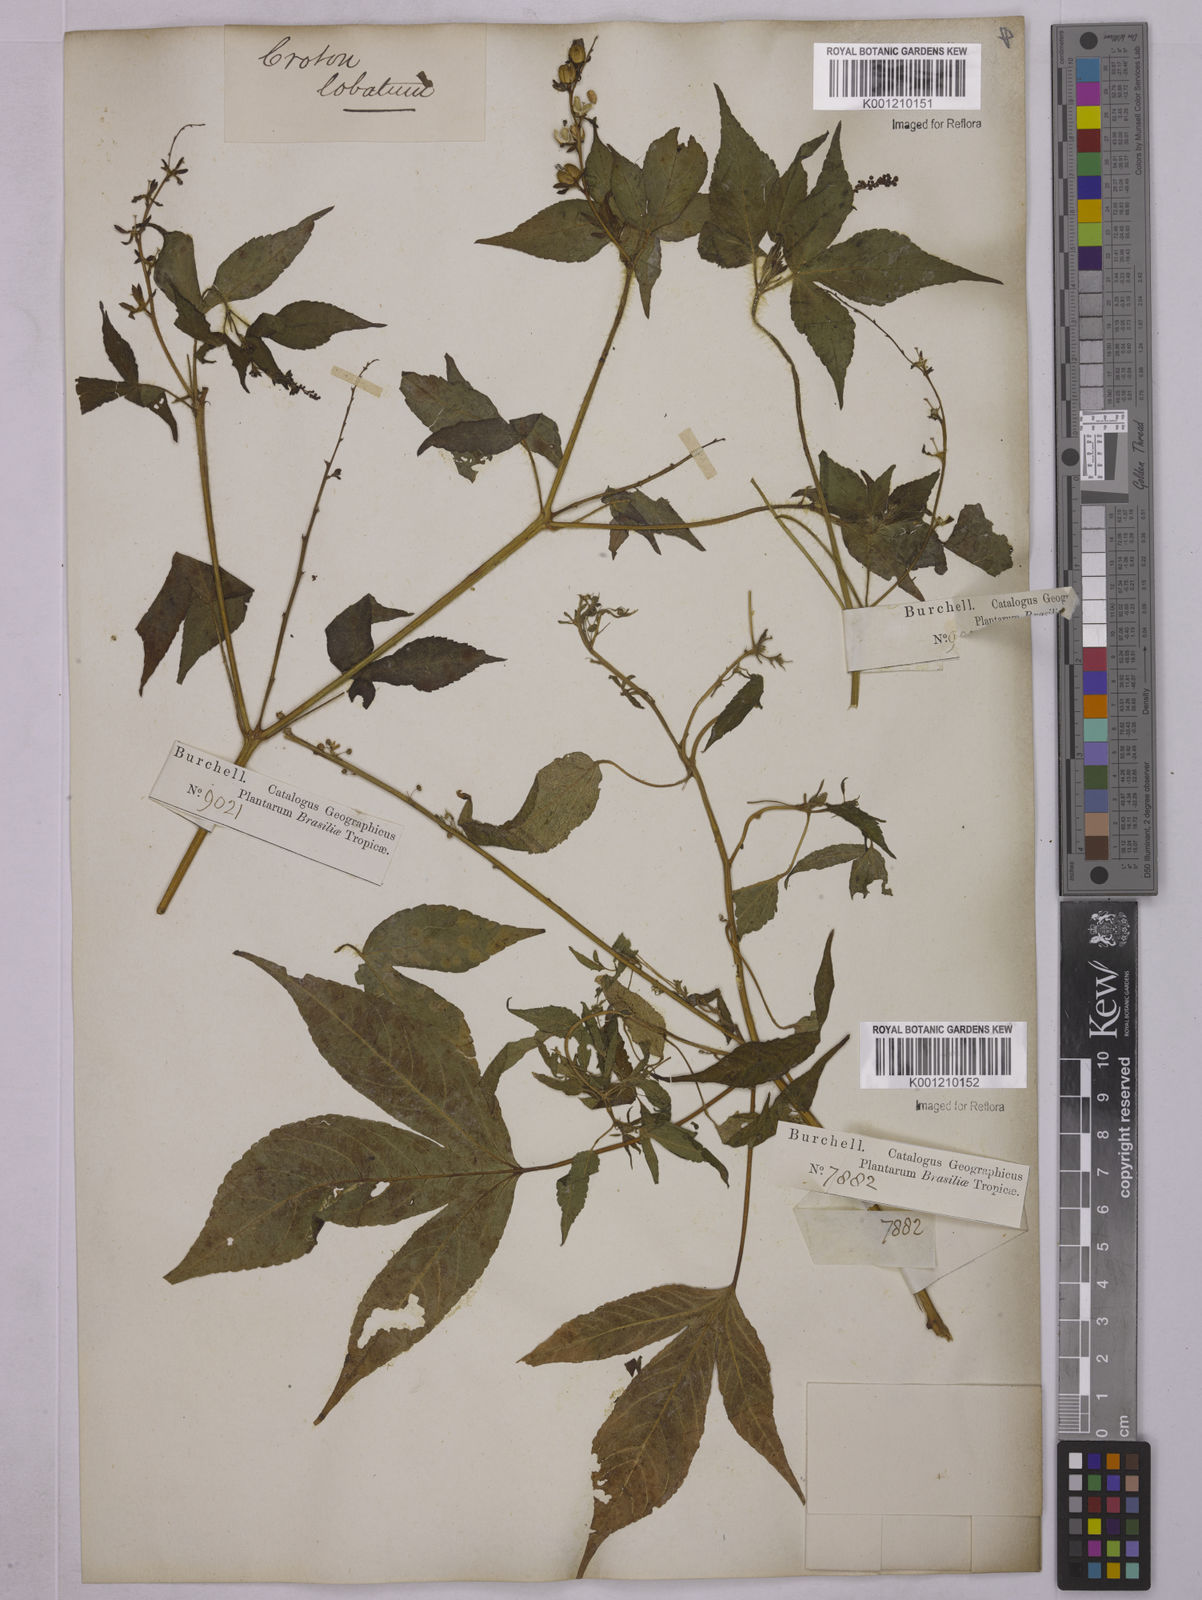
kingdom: Plantae
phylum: Tracheophyta
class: Magnoliopsida
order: Malpighiales
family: Euphorbiaceae
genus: Astraea
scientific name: Astraea lobata
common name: Lobed croton
